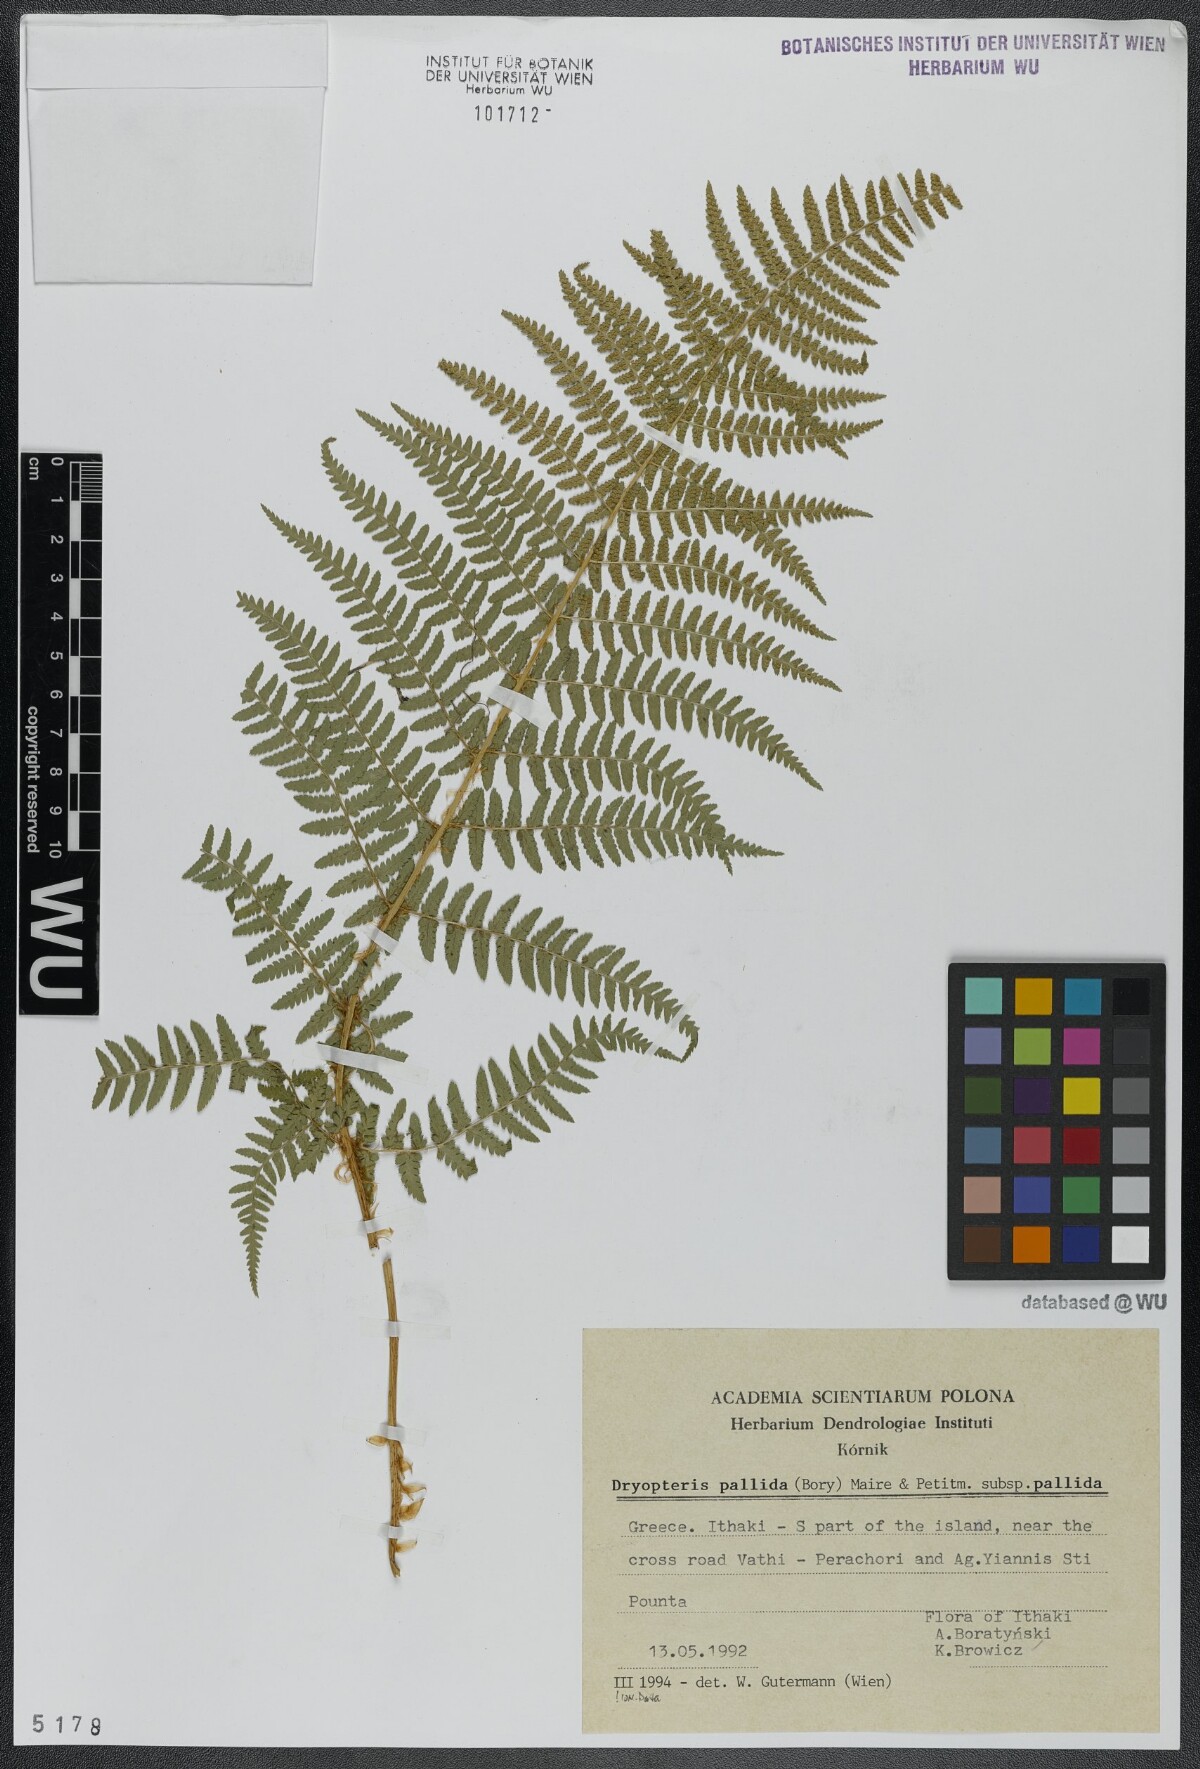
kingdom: Plantae
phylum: Tracheophyta
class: Polypodiopsida
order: Polypodiales
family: Dryopteridaceae
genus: Dryopteris
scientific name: Dryopteris pallida
